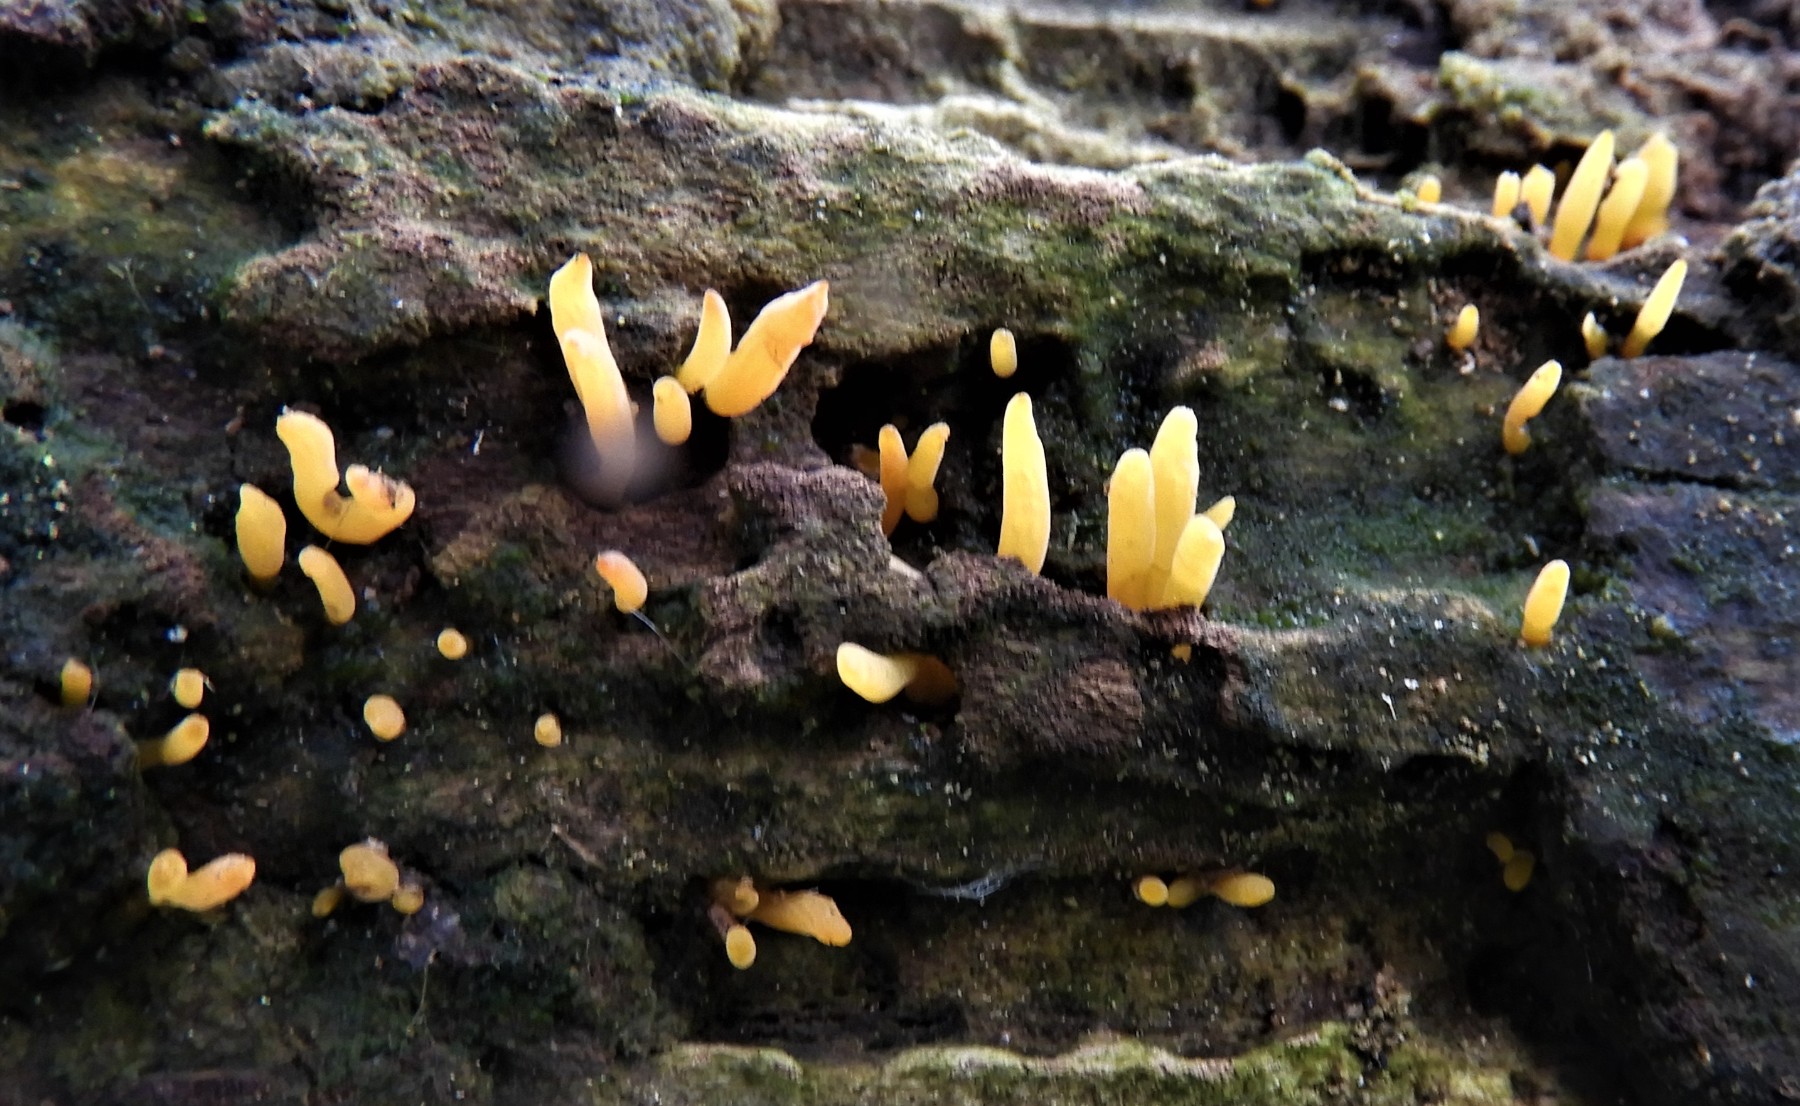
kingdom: Fungi
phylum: Basidiomycota
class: Dacrymycetes
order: Dacrymycetales
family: Dacrymycetaceae
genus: Calocera
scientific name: Calocera cornea
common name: liden guldgaffel
